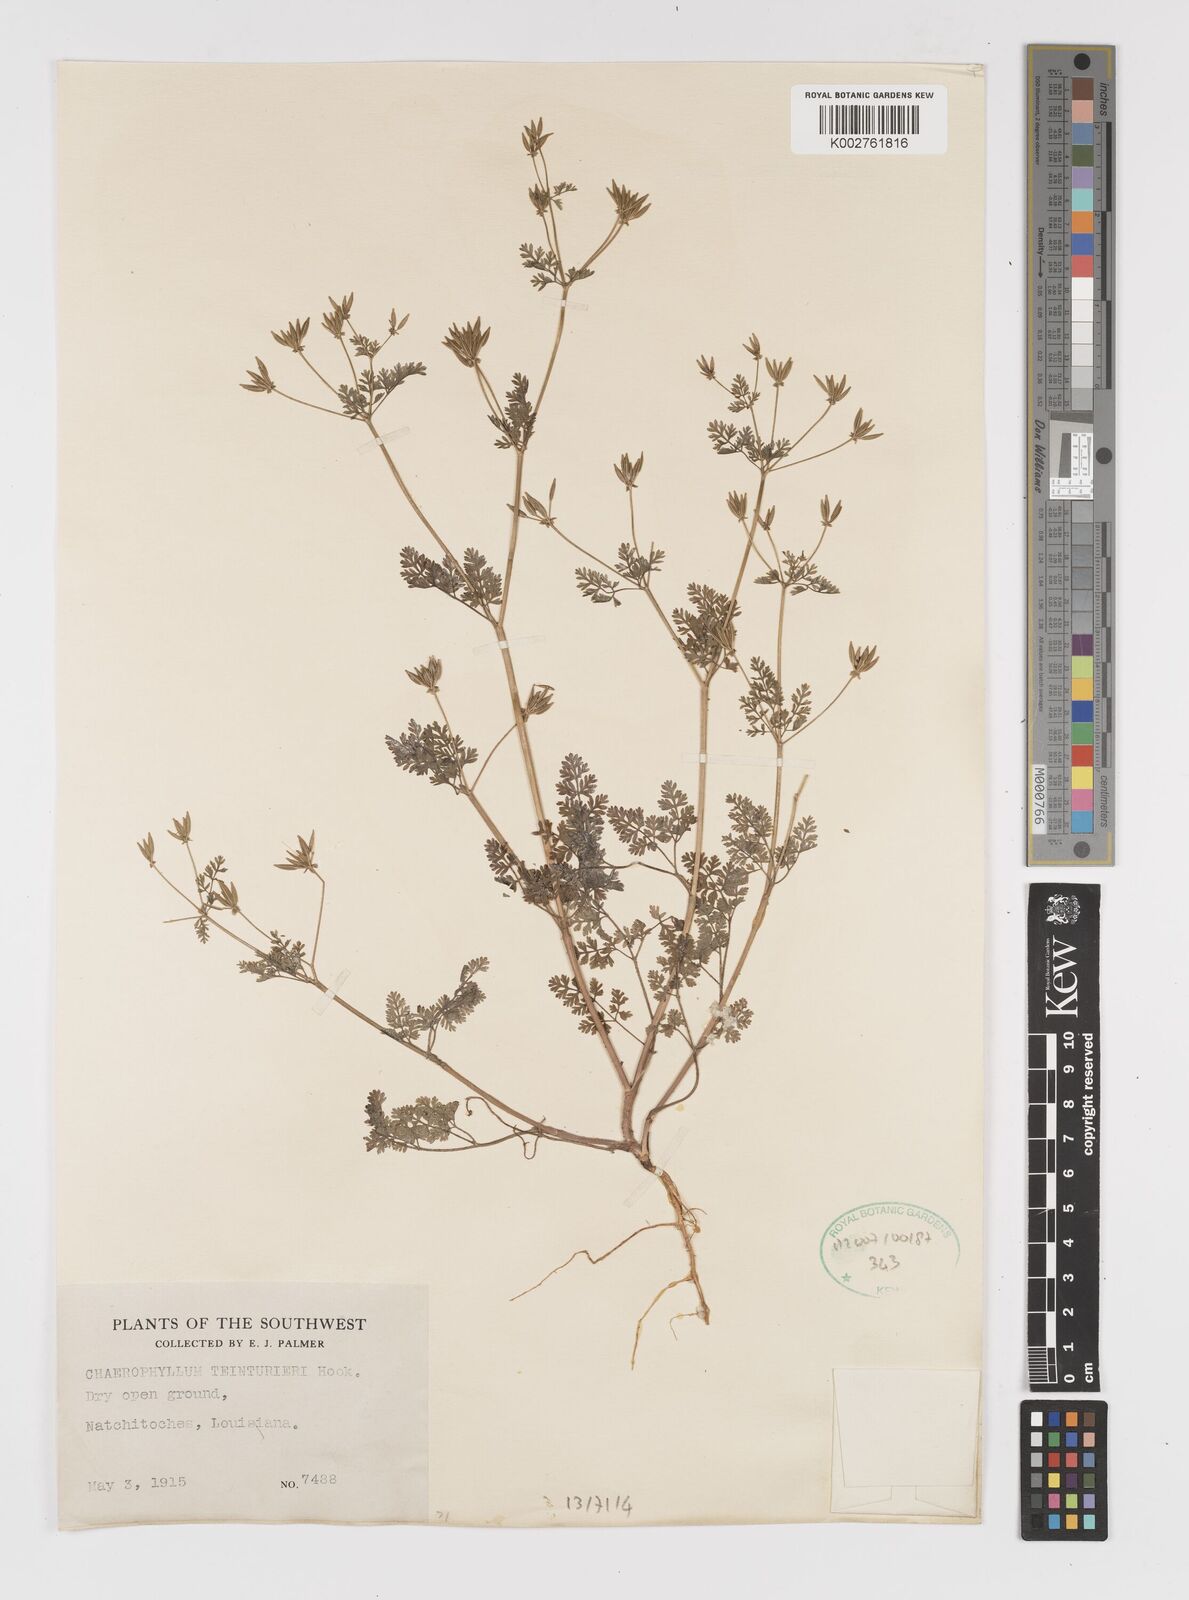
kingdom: Plantae
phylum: Tracheophyta
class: Magnoliopsida
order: Apiales
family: Apiaceae
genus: Chaerophyllum
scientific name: Chaerophyllum tainturieri
